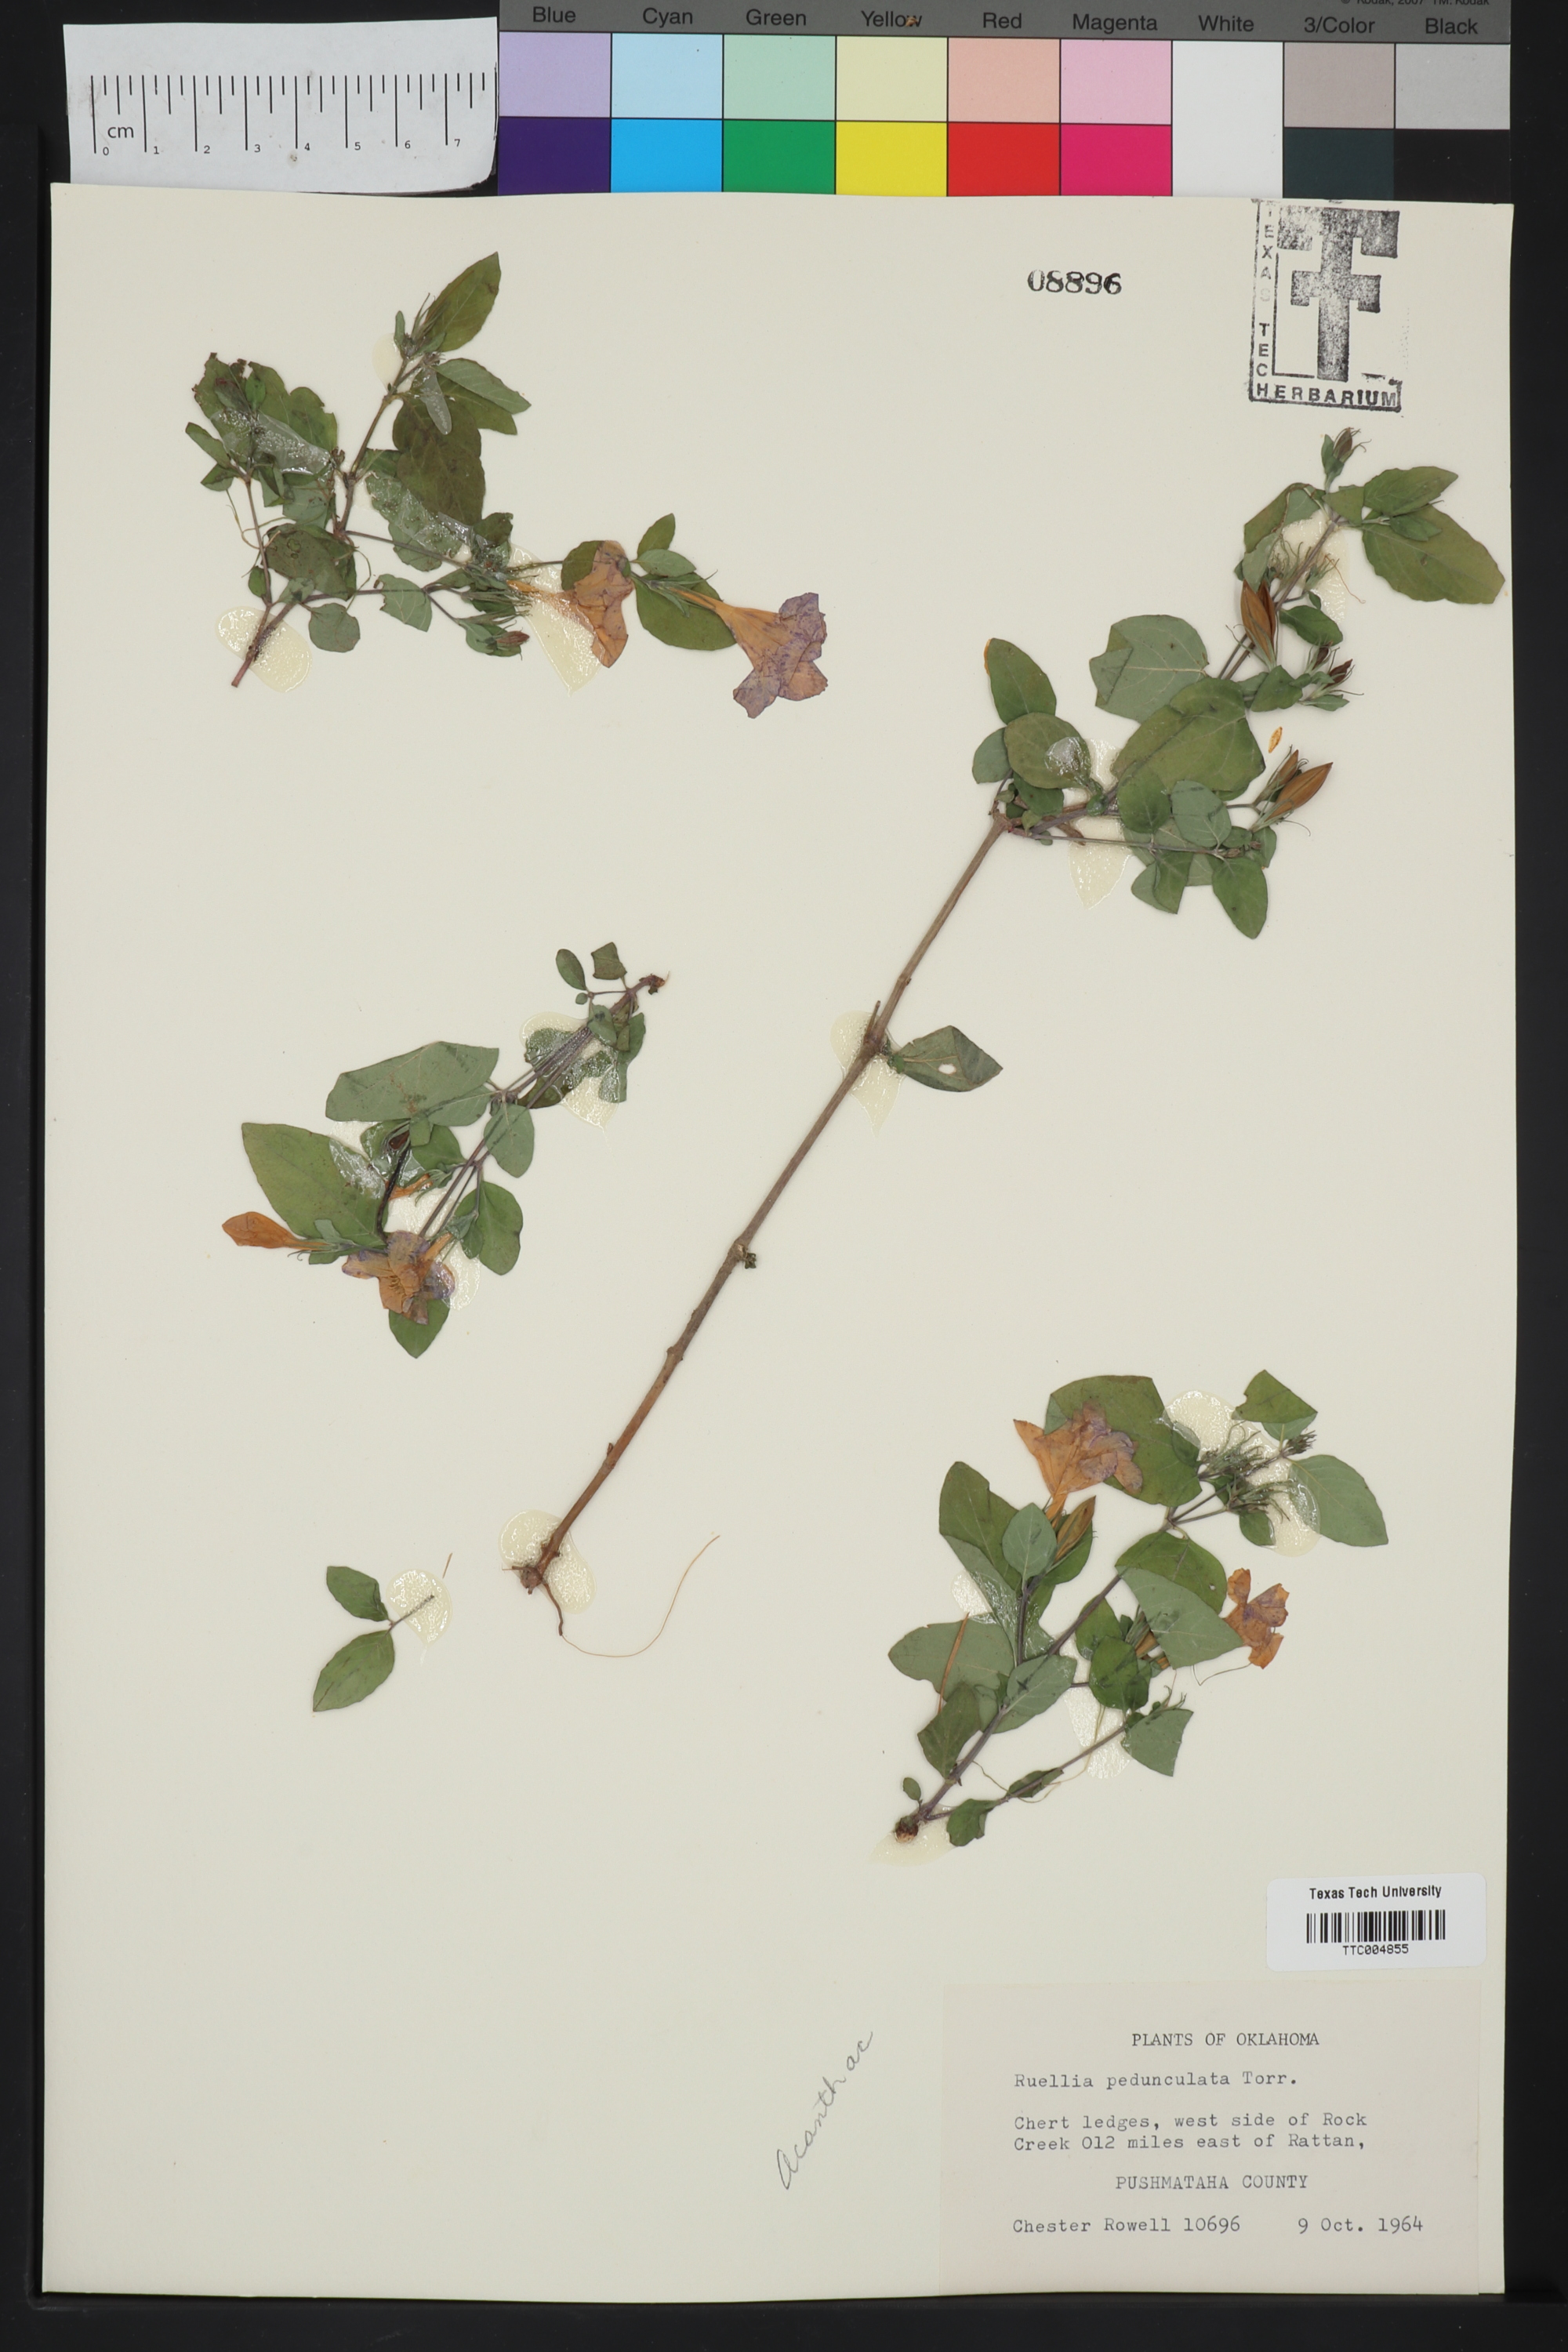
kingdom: Plantae
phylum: Tracheophyta
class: Magnoliopsida
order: Lamiales
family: Acanthaceae
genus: Ruellia
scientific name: Ruellia pedunculata
